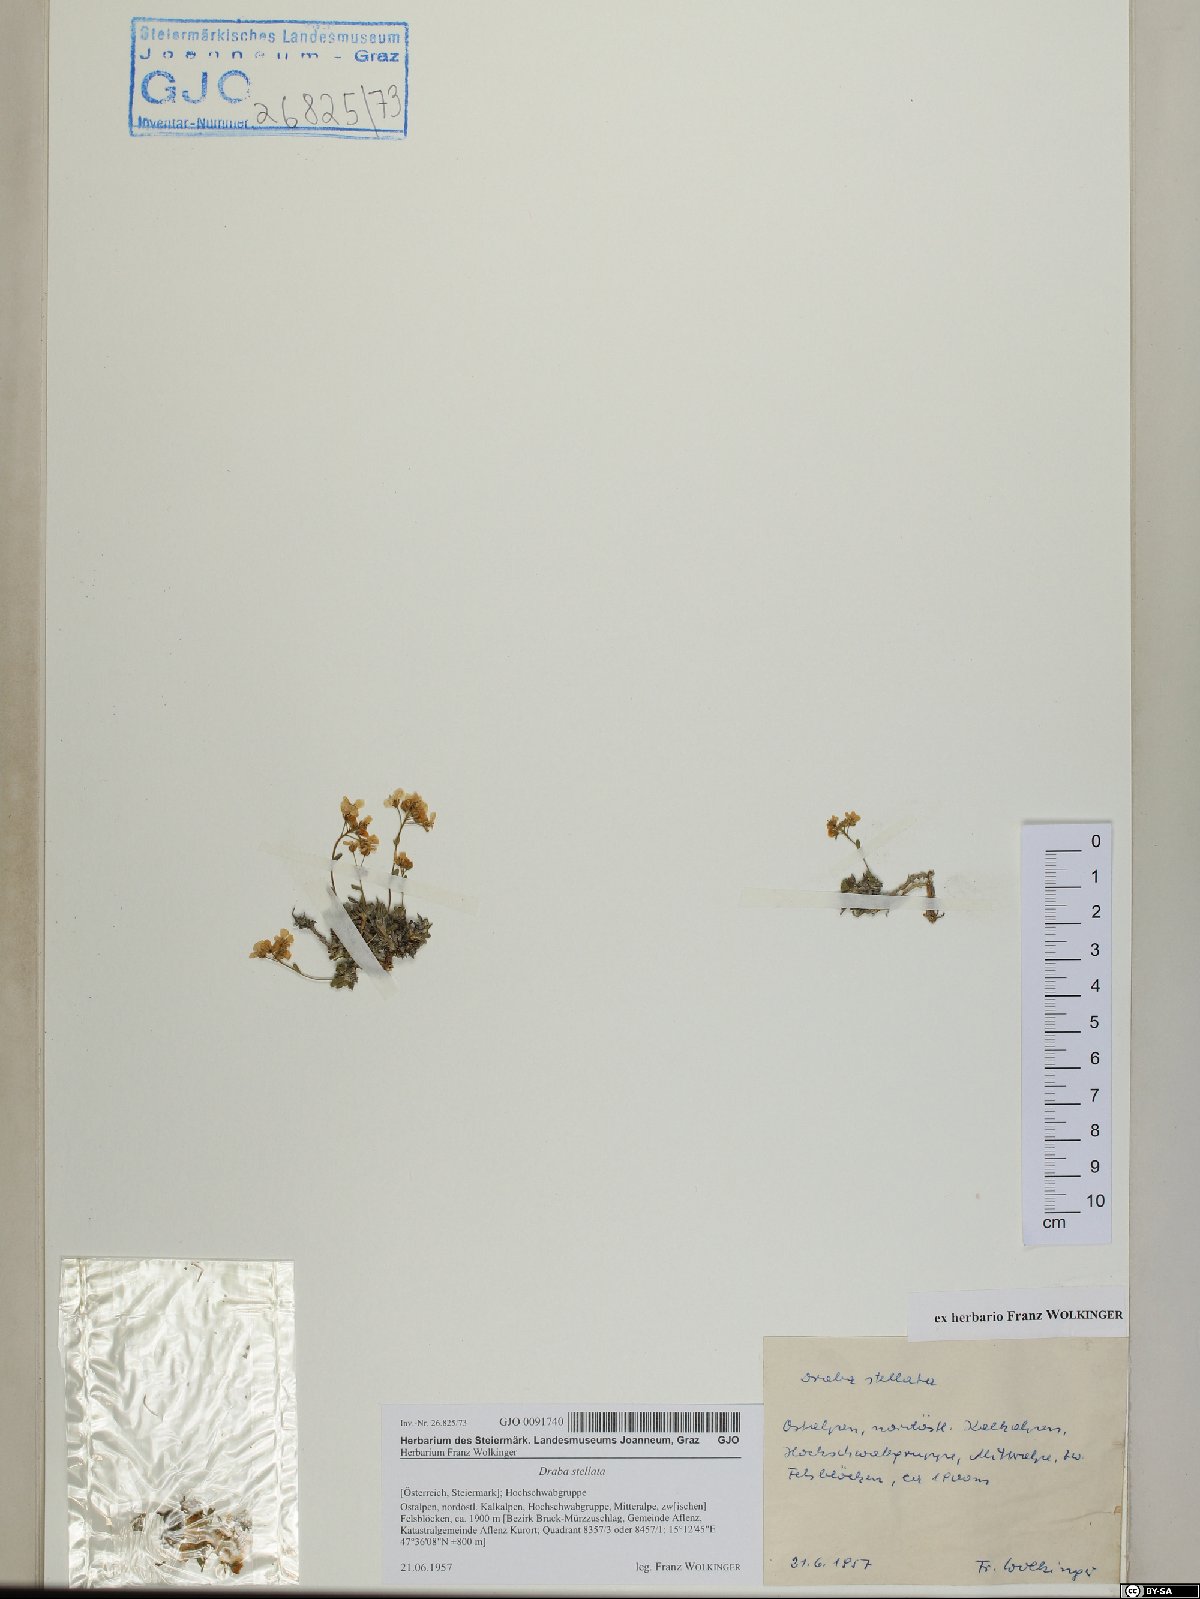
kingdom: Plantae
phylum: Tracheophyta
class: Magnoliopsida
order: Brassicales
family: Brassicaceae
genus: Draba
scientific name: Draba stellata
